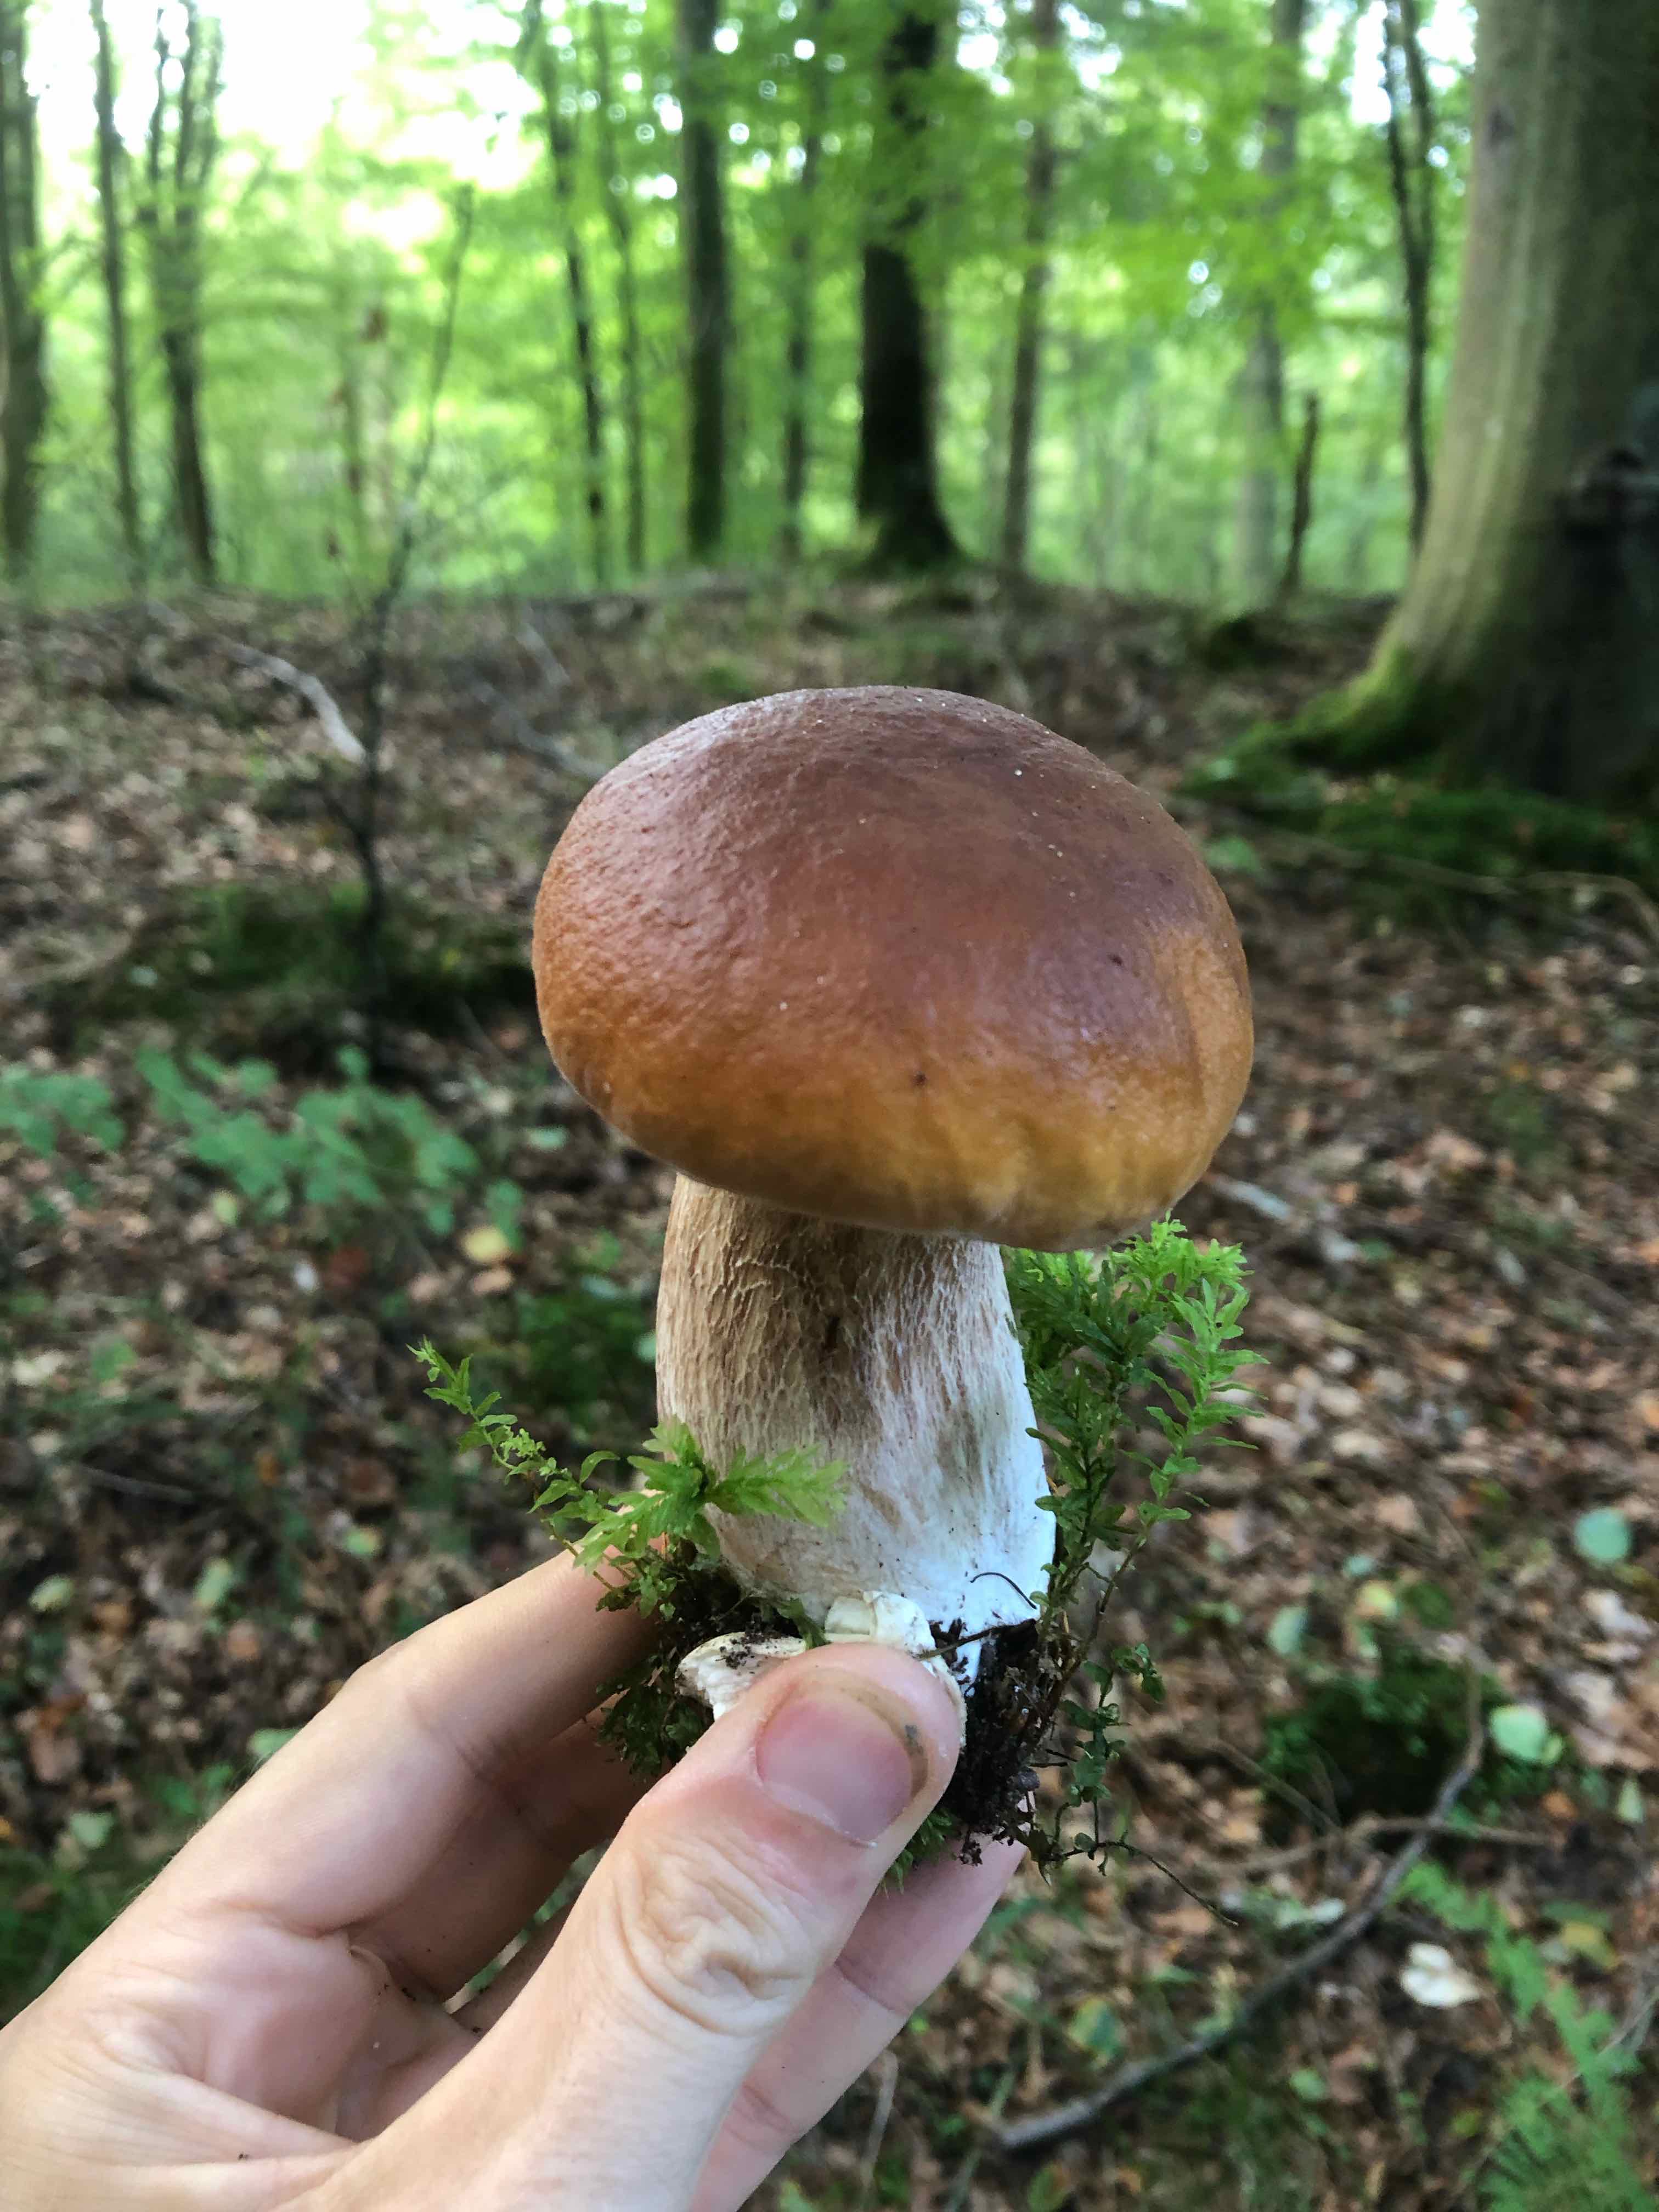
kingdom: Fungi
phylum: Basidiomycota
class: Agaricomycetes
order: Boletales
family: Boletaceae
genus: Boletus
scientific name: Boletus edulis
